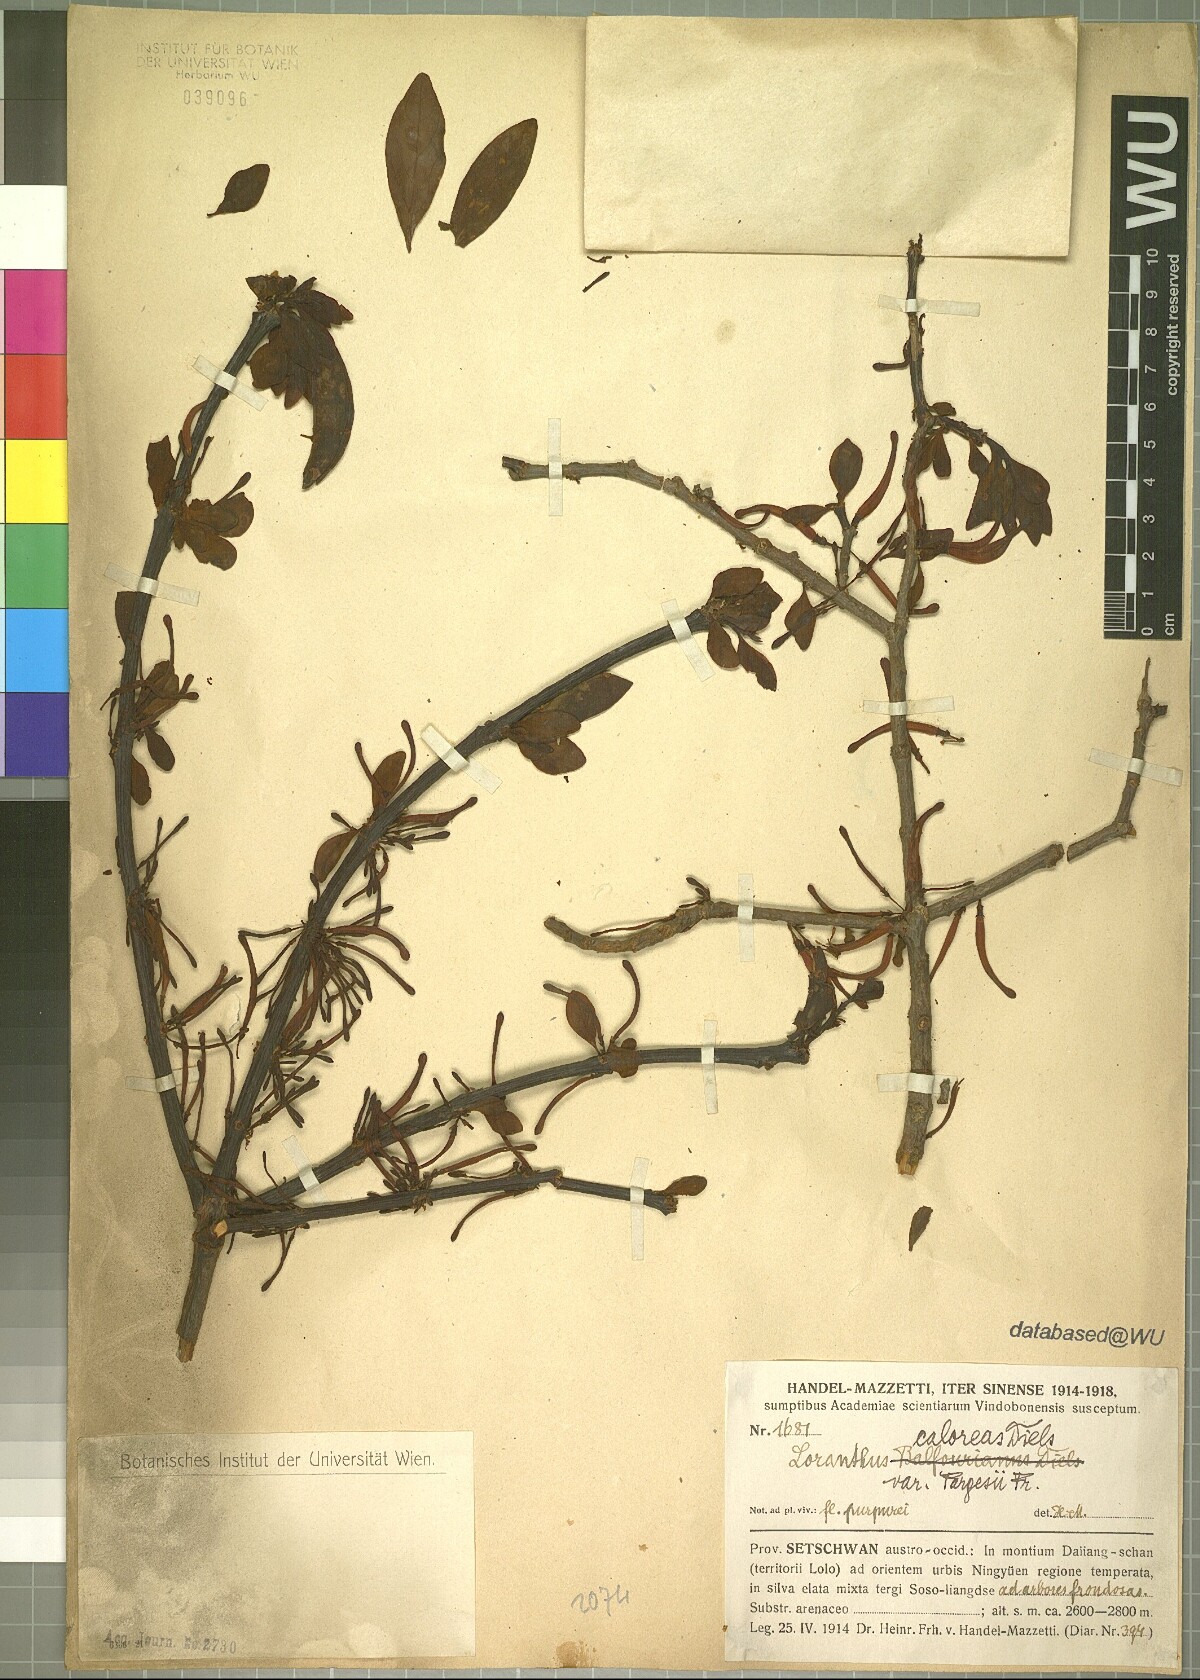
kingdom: Plantae
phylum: Tracheophyta
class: Magnoliopsida
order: Santalales
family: Loranthaceae
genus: Taxillus
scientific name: Taxillus caloreas
